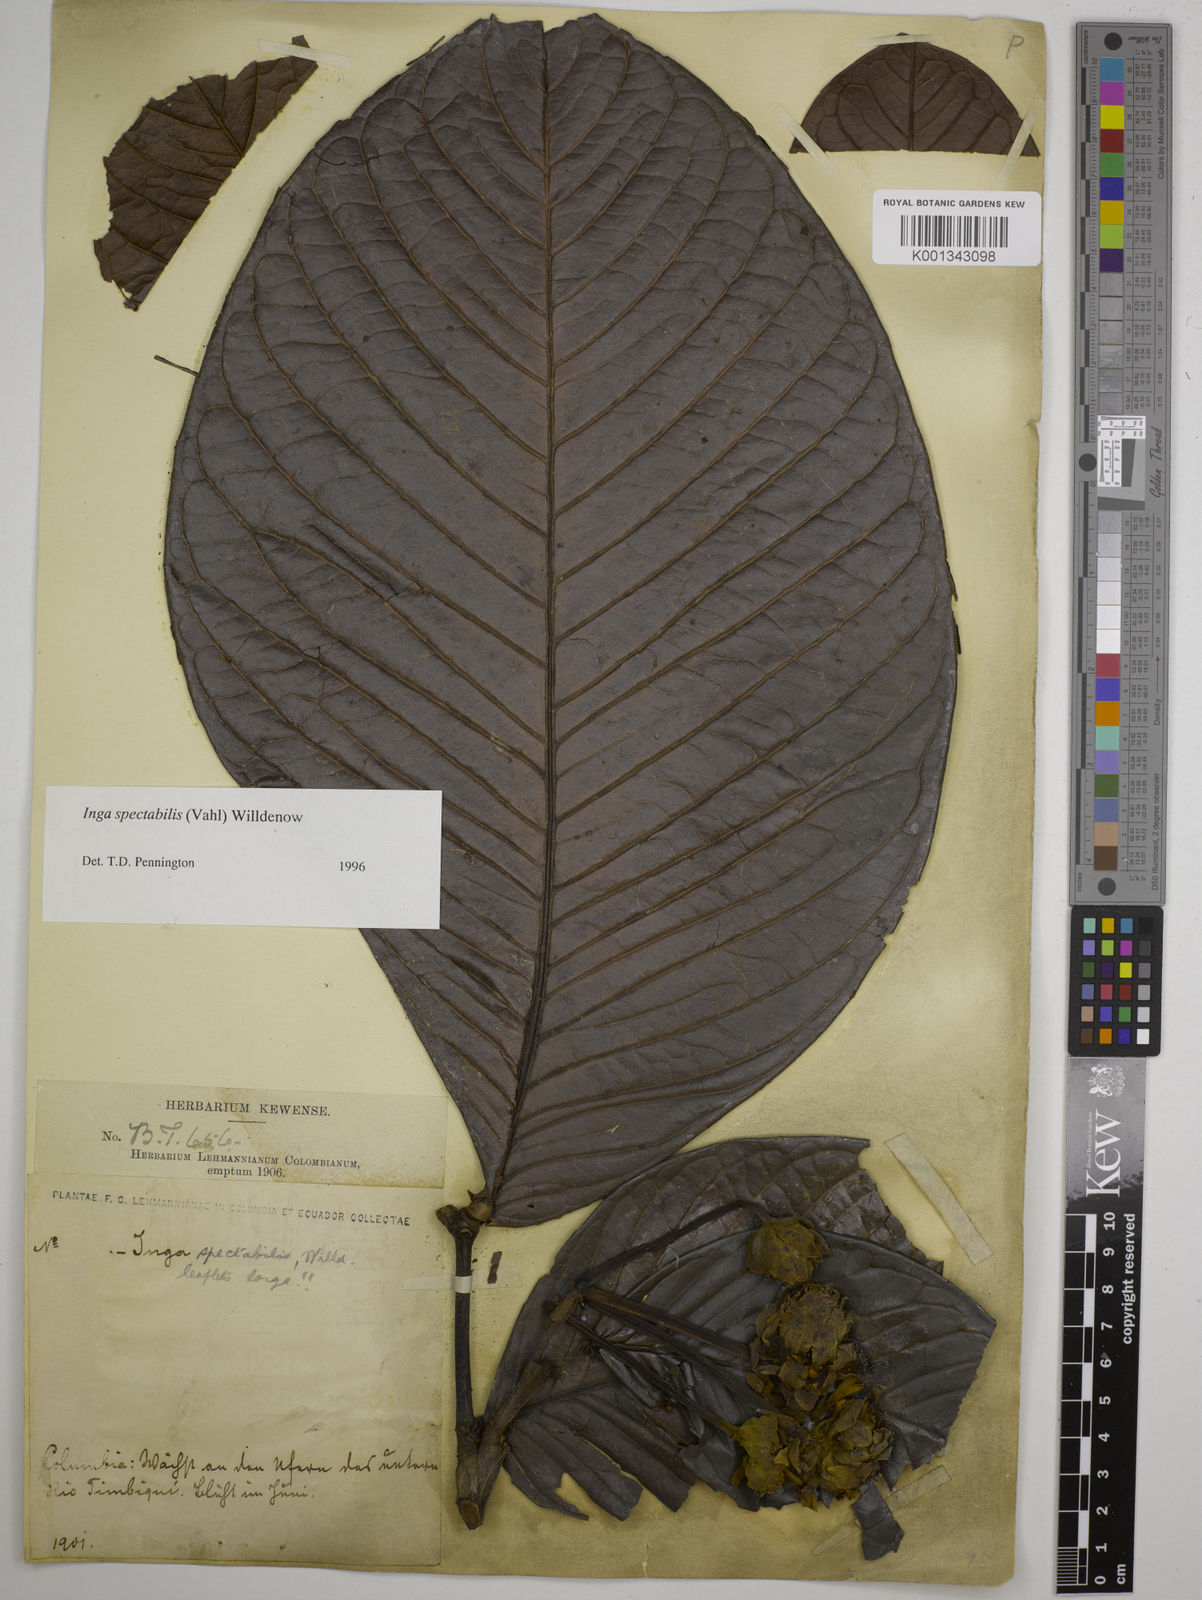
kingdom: Plantae
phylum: Tracheophyta
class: Magnoliopsida
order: Fabales
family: Fabaceae
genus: Inga
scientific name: Inga spectabilis
